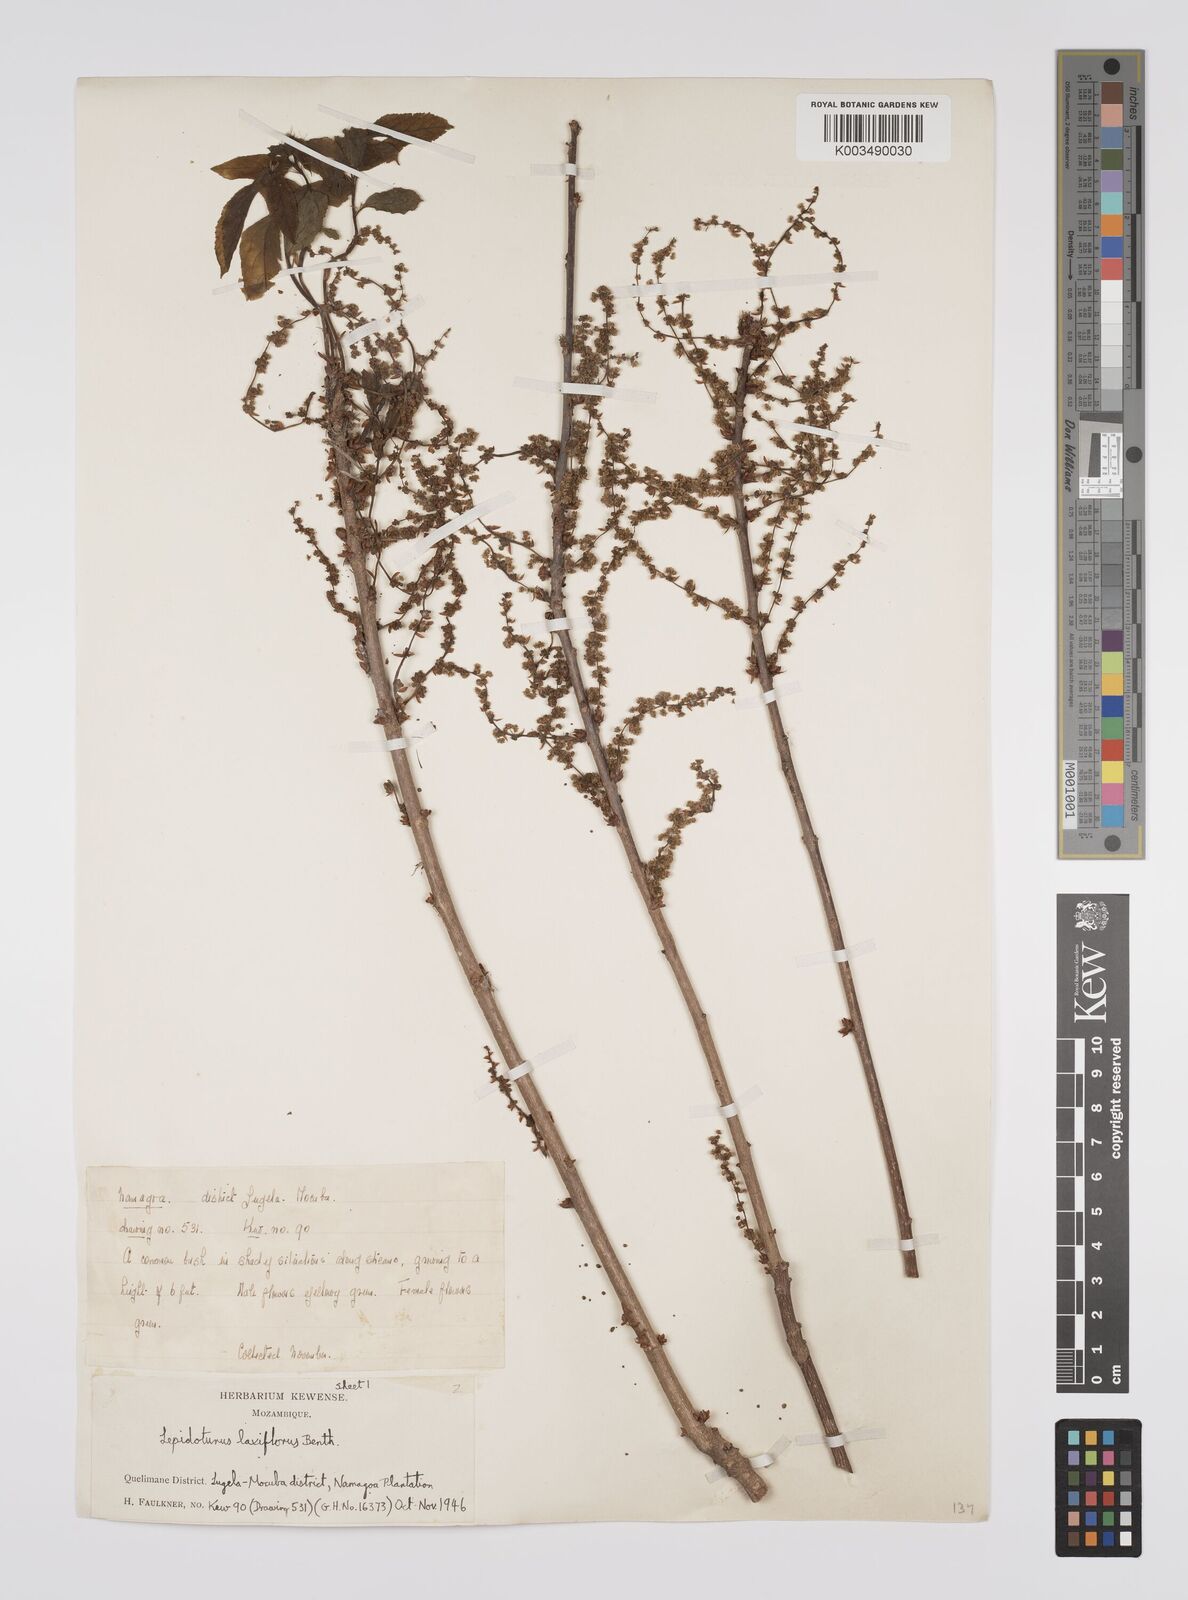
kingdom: Plantae
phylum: Tracheophyta
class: Magnoliopsida
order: Malpighiales
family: Euphorbiaceae
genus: Alchornea
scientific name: Alchornea laxiflora
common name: Lowveld bead-string
